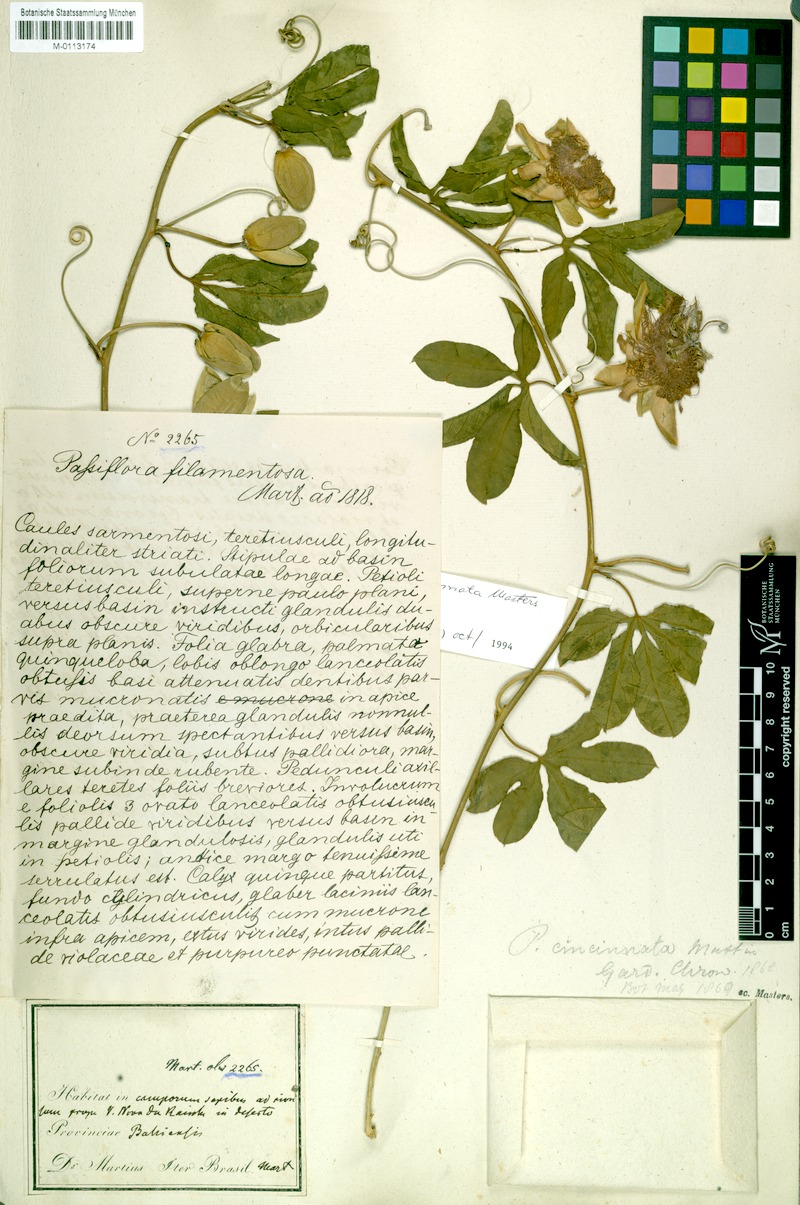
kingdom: Plantae
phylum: Tracheophyta
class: Magnoliopsida
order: Malpighiales
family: Passifloraceae
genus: Passiflora
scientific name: Passiflora cincinnata
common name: Crato passionvine
